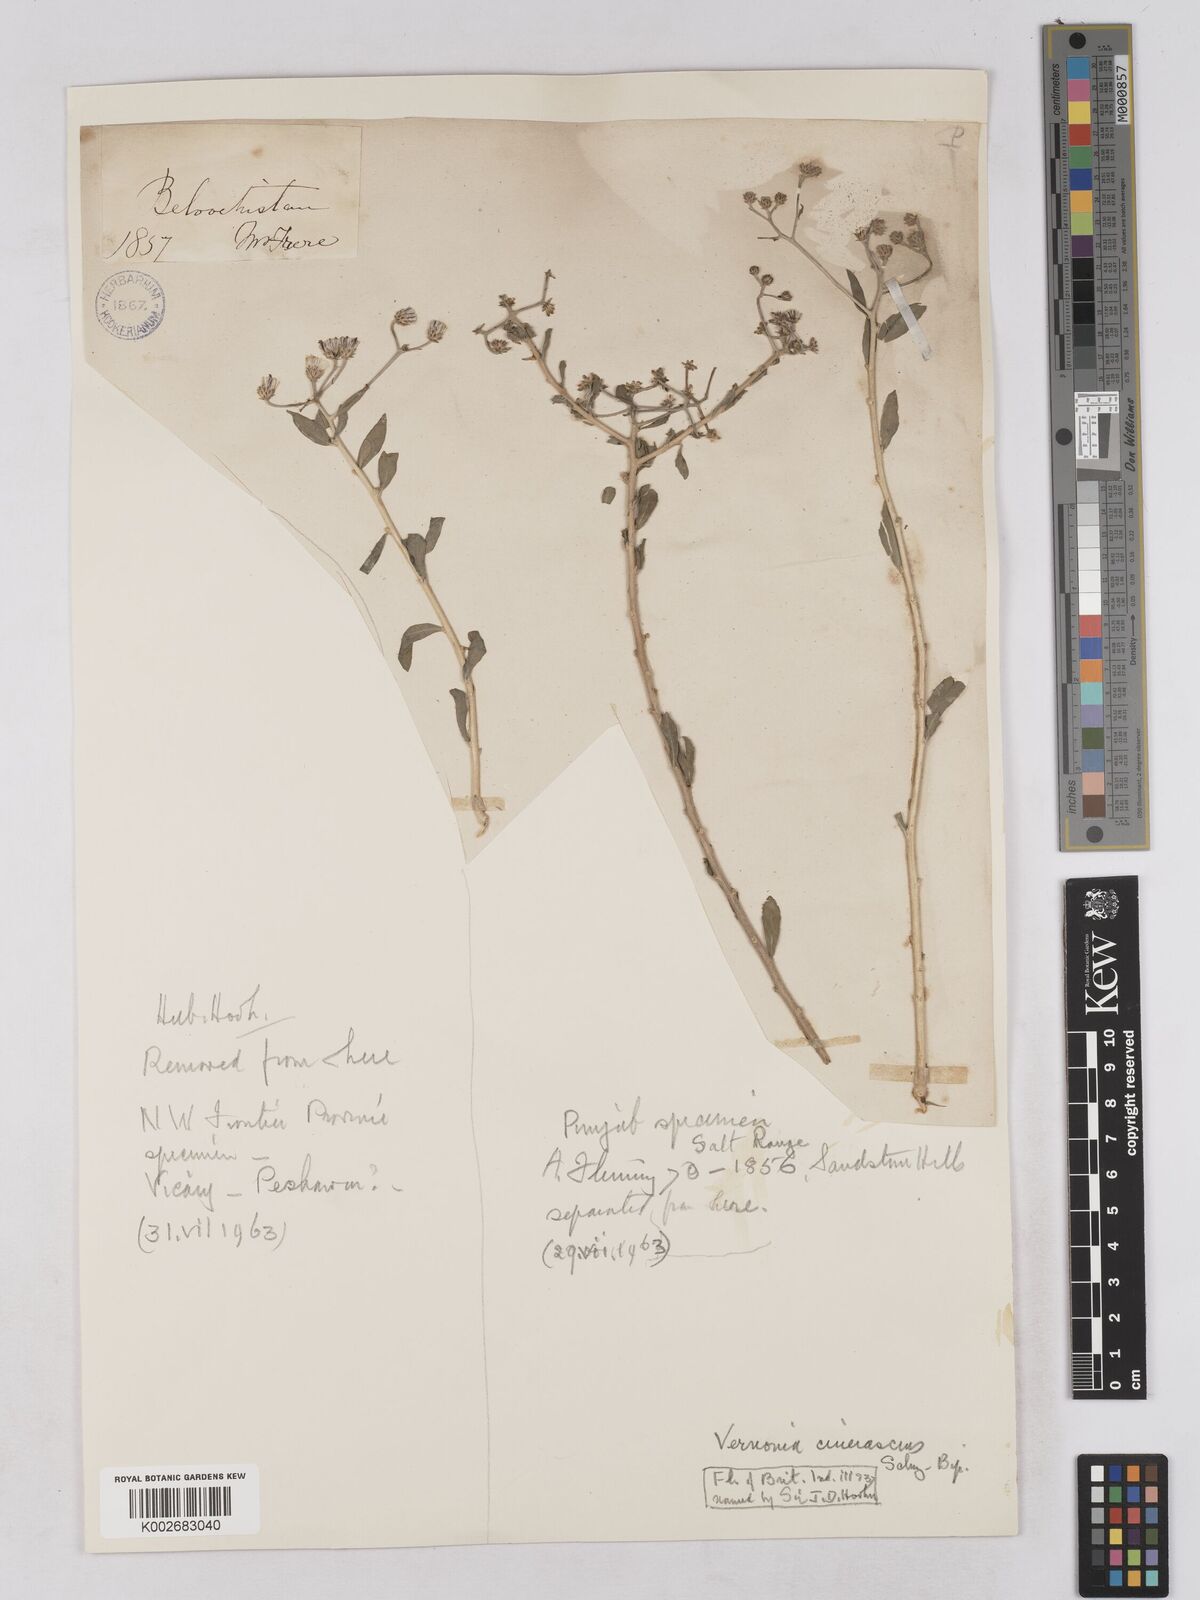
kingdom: Plantae
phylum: Tracheophyta
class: Magnoliopsida
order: Asterales
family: Asteraceae
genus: Orbivestus
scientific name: Orbivestus cinerascens
